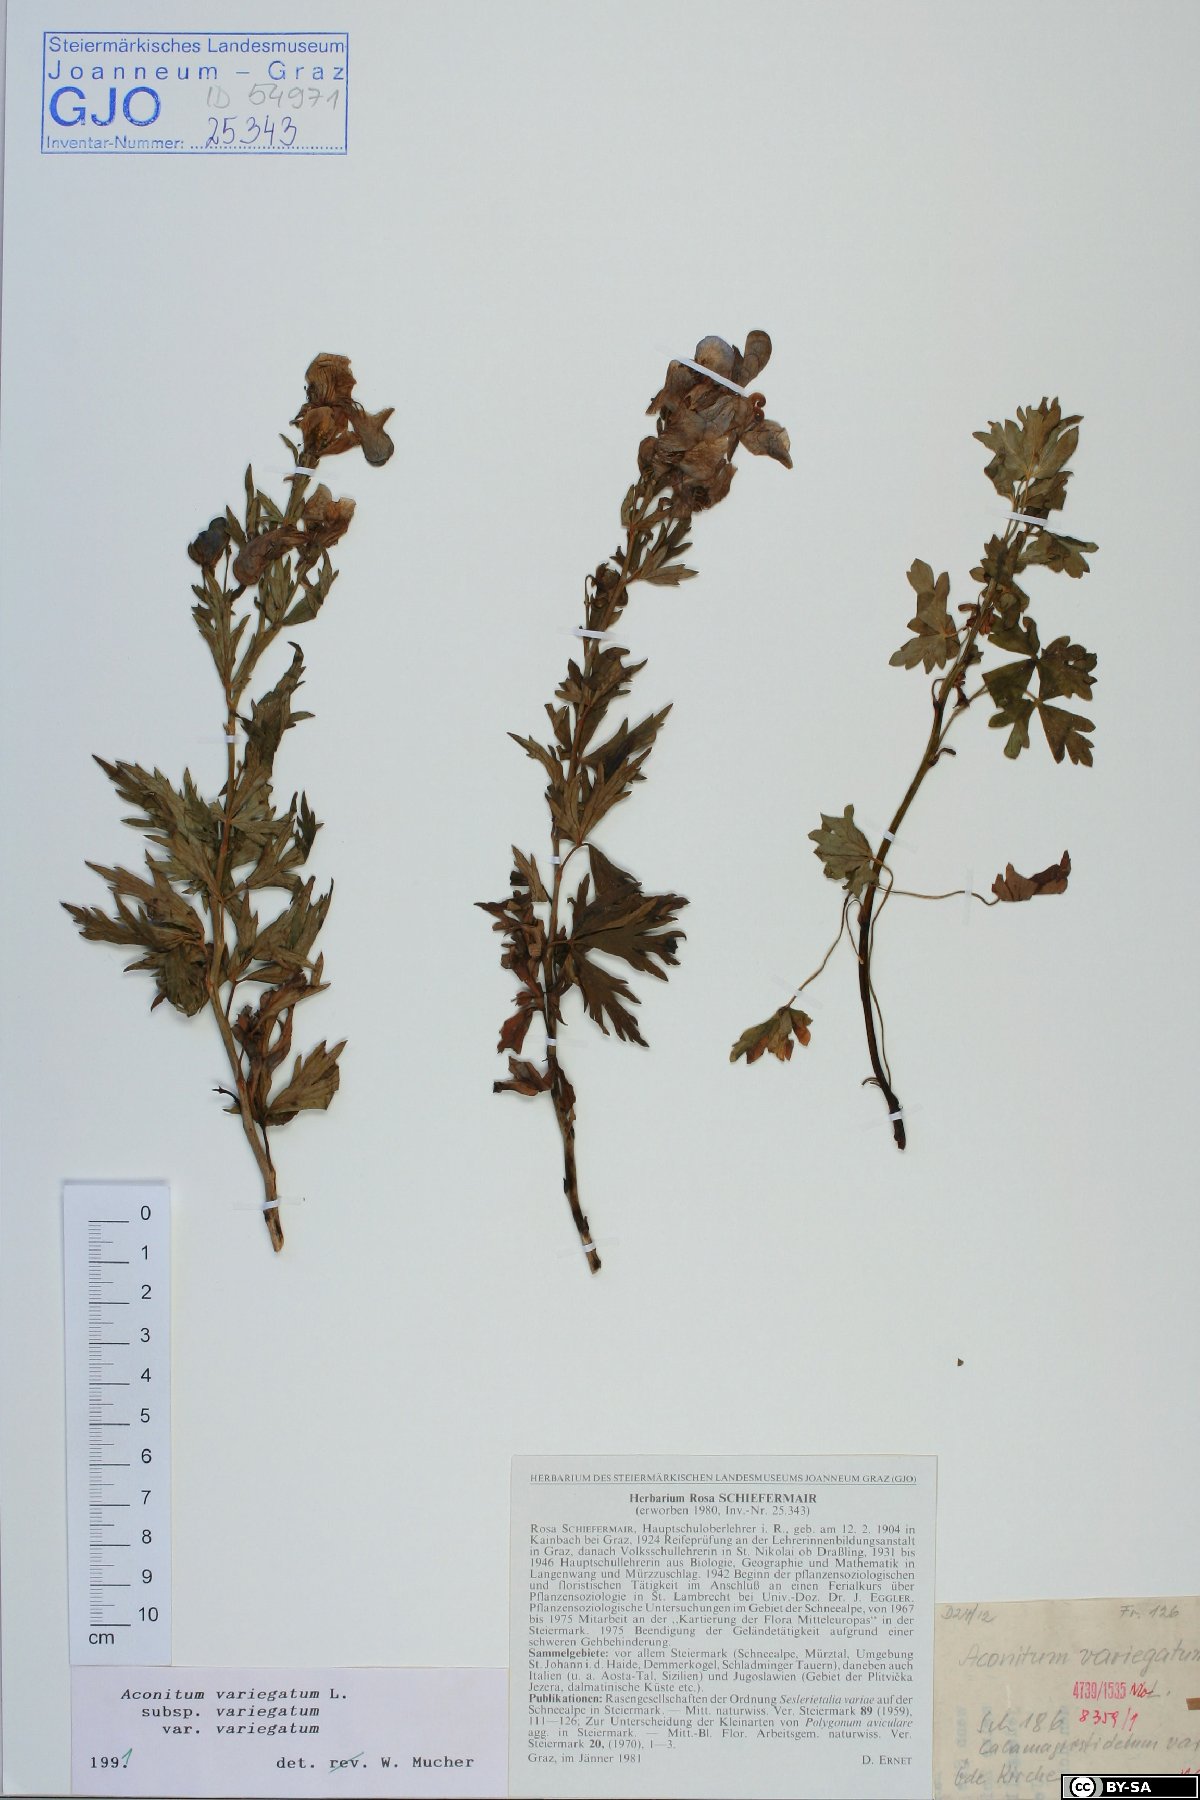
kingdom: Plantae
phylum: Tracheophyta
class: Magnoliopsida
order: Ranunculales
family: Ranunculaceae
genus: Aconitum
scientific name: Aconitum variegatum
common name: Manchurian monkshood
